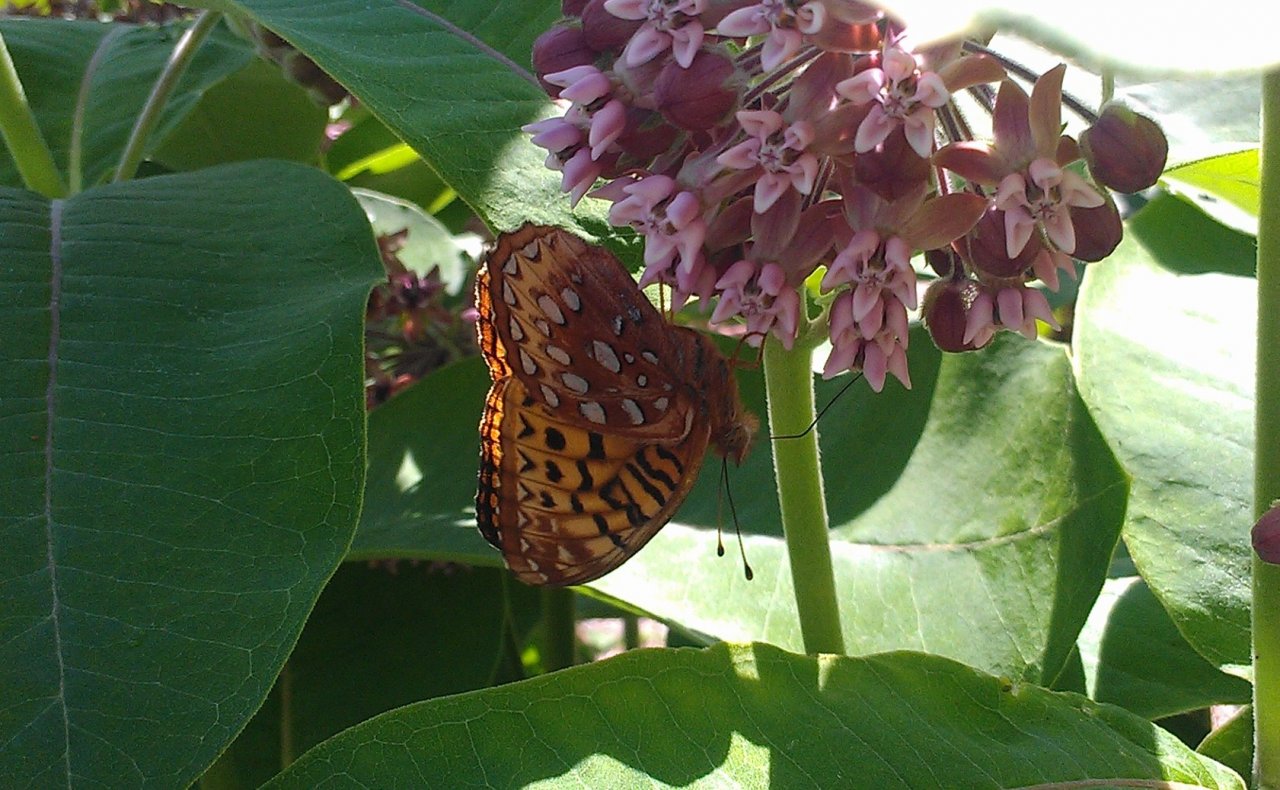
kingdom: Animalia
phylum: Arthropoda
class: Insecta
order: Lepidoptera
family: Nymphalidae
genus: Speyeria
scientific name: Speyeria cybele
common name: Great Spangled Fritillary
